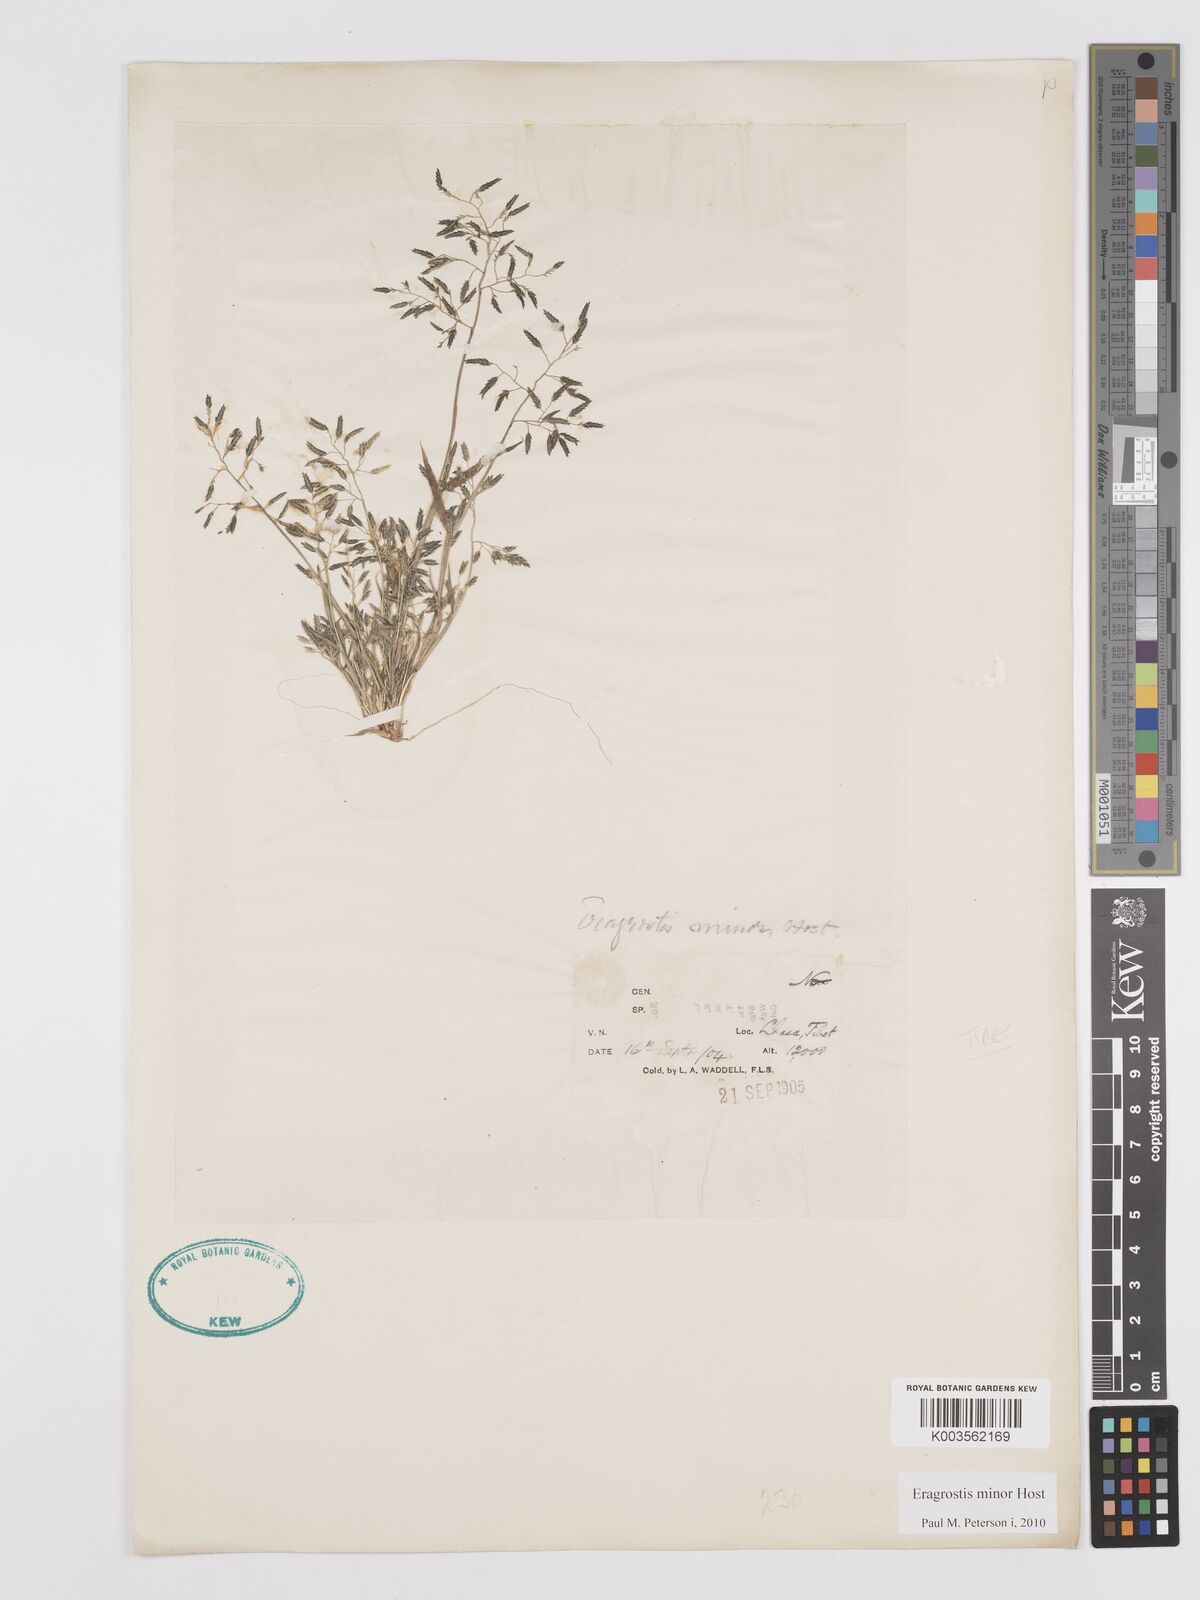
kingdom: Plantae
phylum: Tracheophyta
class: Liliopsida
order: Poales
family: Poaceae
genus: Eragrostis
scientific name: Eragrostis minor
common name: Small love-grass
